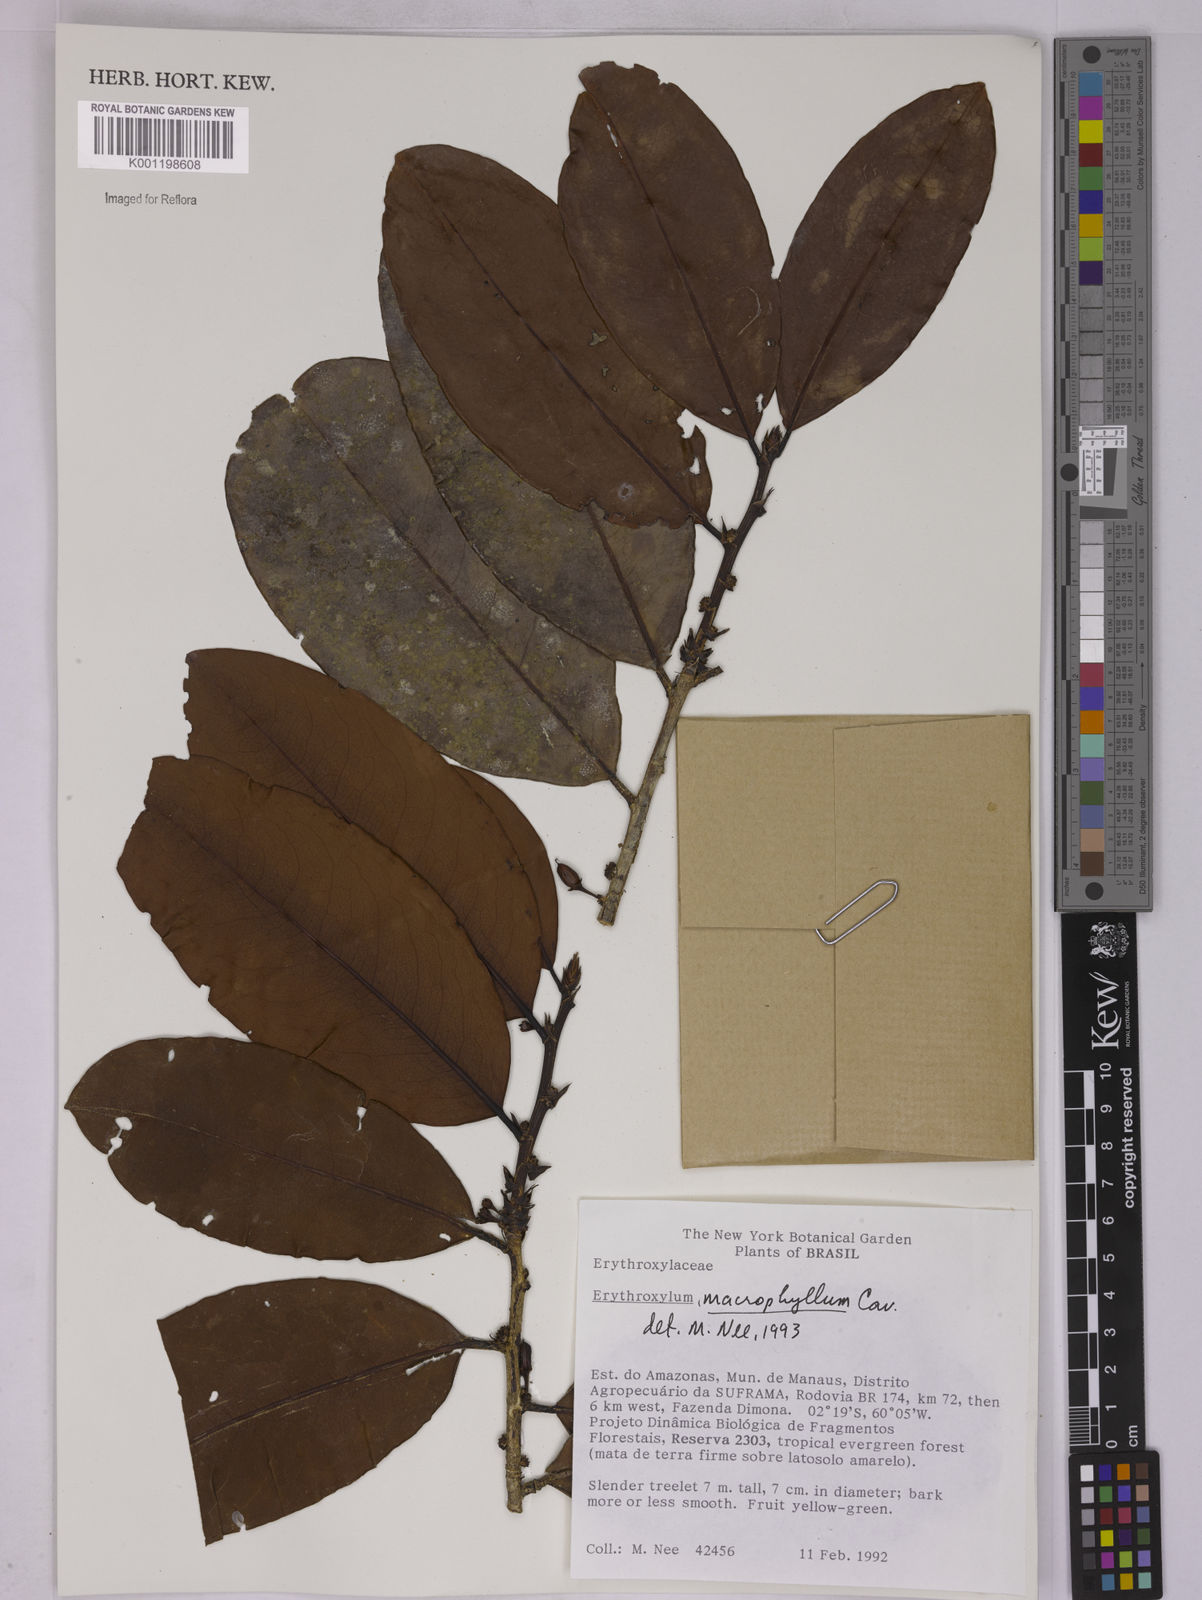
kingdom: Plantae
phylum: Tracheophyta
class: Magnoliopsida
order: Malpighiales
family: Erythroxylaceae
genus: Erythroxylum
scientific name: Erythroxylum macrophyllum
